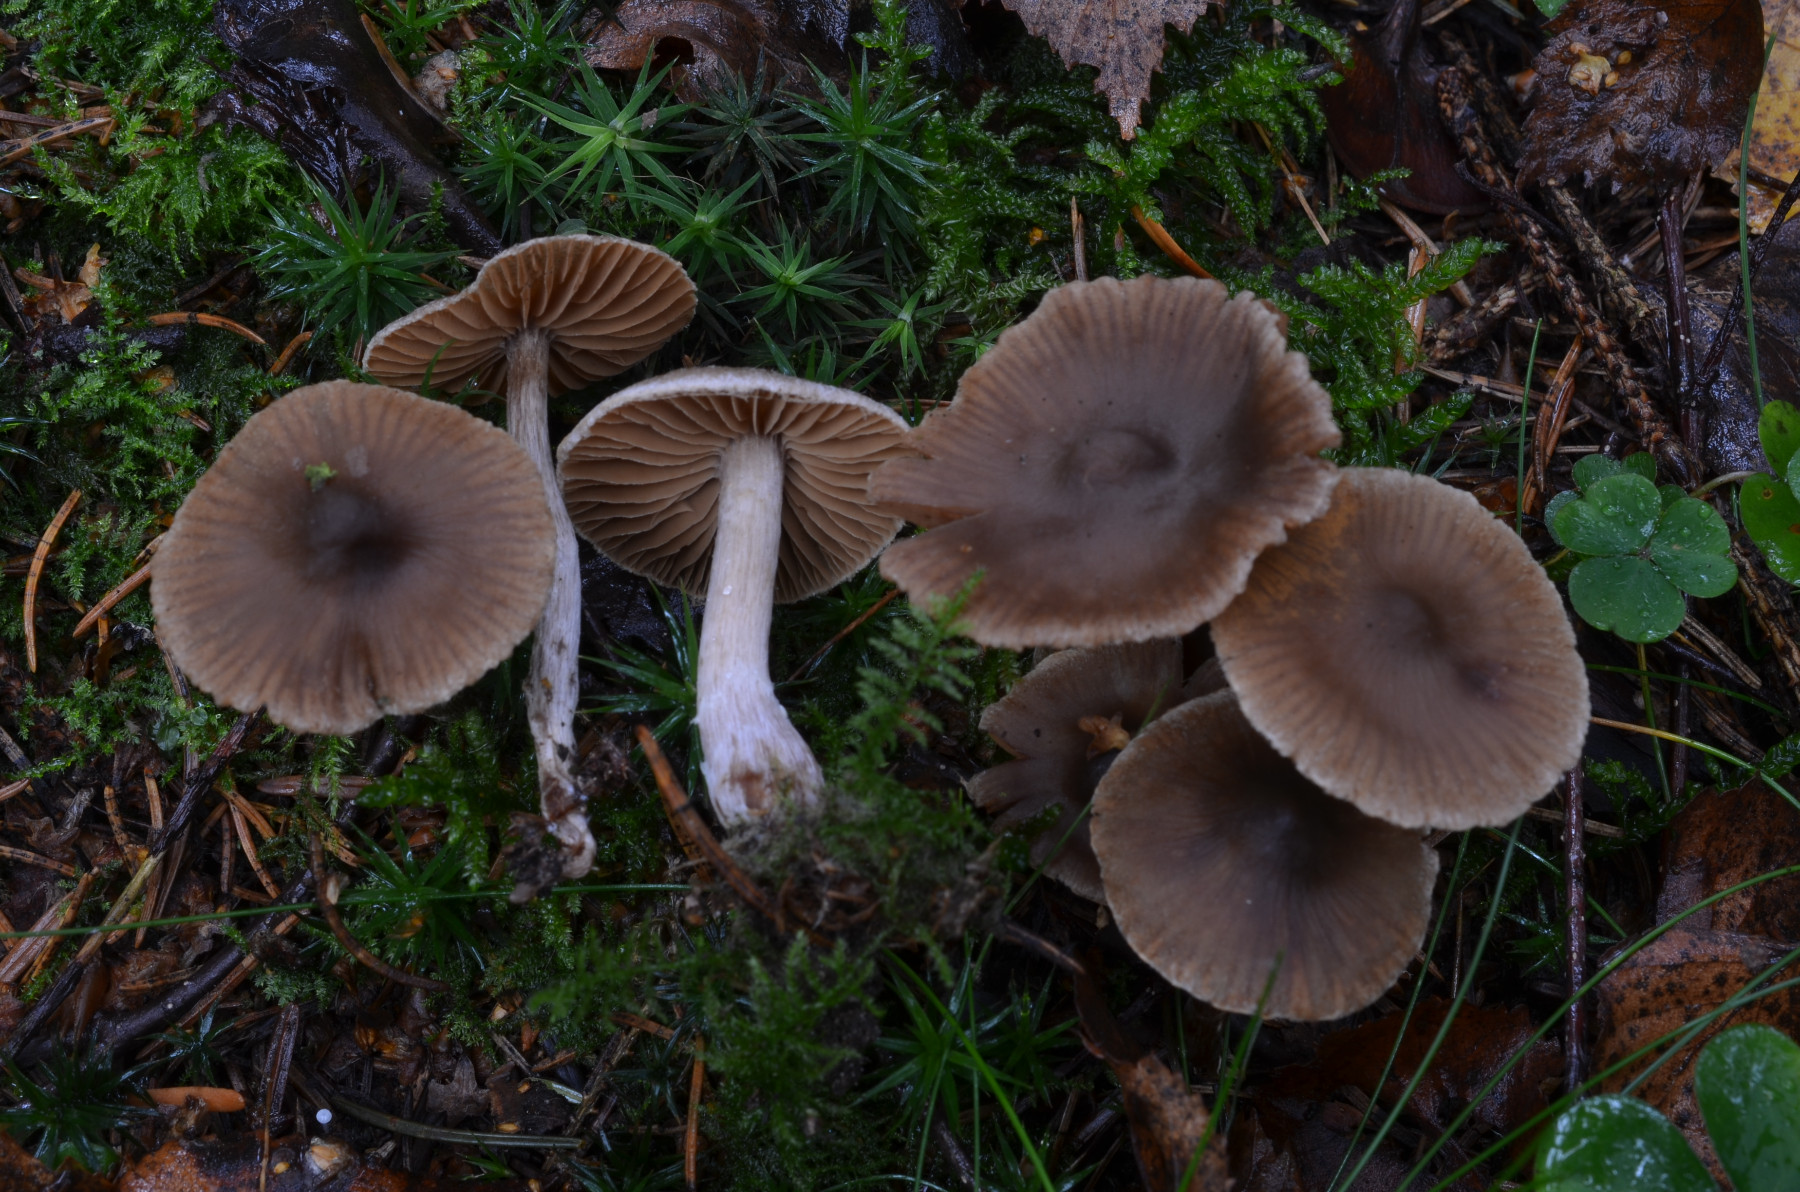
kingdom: Fungi
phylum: Basidiomycota
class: Agaricomycetes
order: Agaricales
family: Cortinariaceae
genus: Cortinarius
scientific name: Cortinarius pilatii
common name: Piláts slørhat
